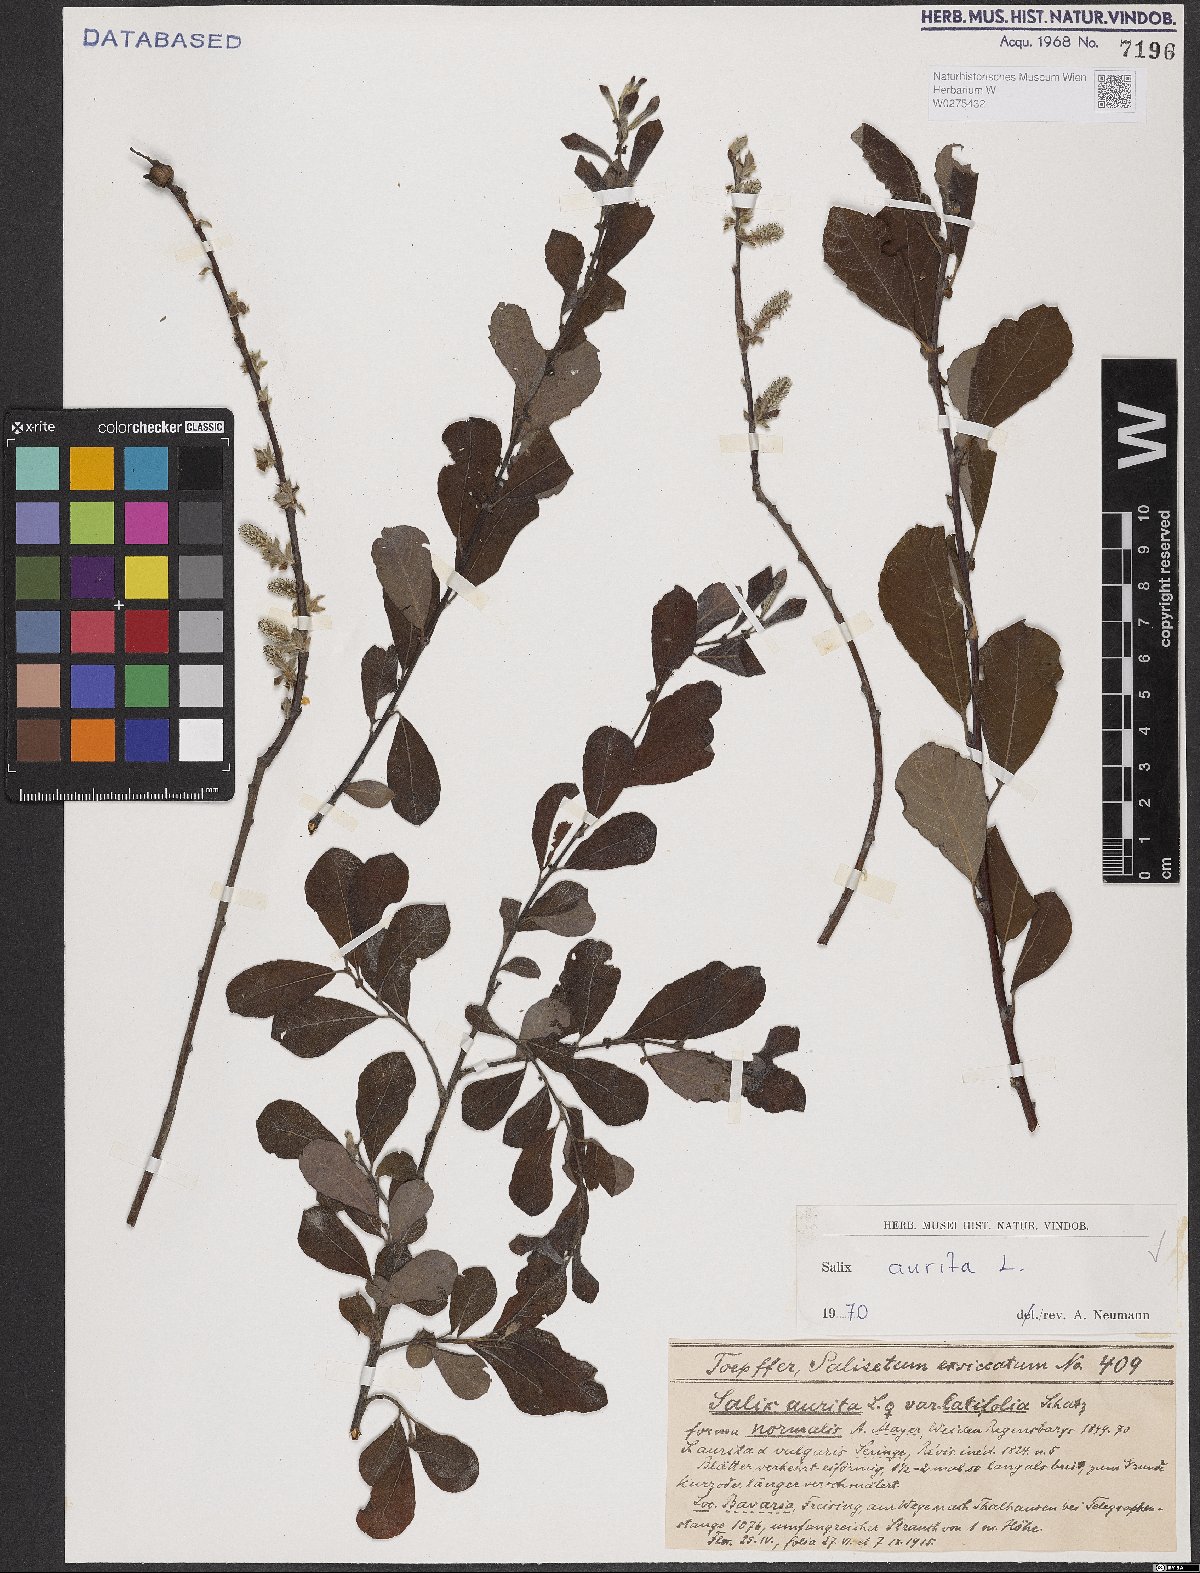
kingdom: Plantae
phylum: Tracheophyta
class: Magnoliopsida
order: Malpighiales
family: Salicaceae
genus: Salix
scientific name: Salix aurita
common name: Eared willow
